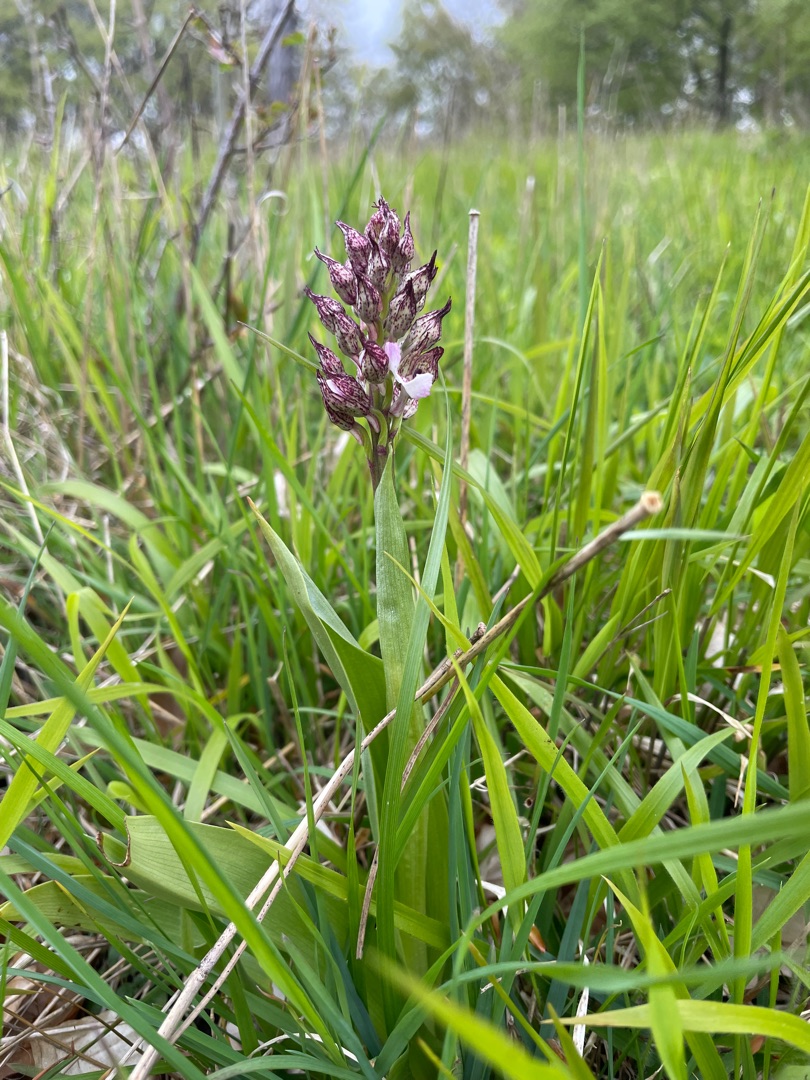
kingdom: Plantae
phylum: Tracheophyta
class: Liliopsida
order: Asparagales
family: Orchidaceae
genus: Orchis
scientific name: Orchis purpurea
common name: Stor gøgeurt
